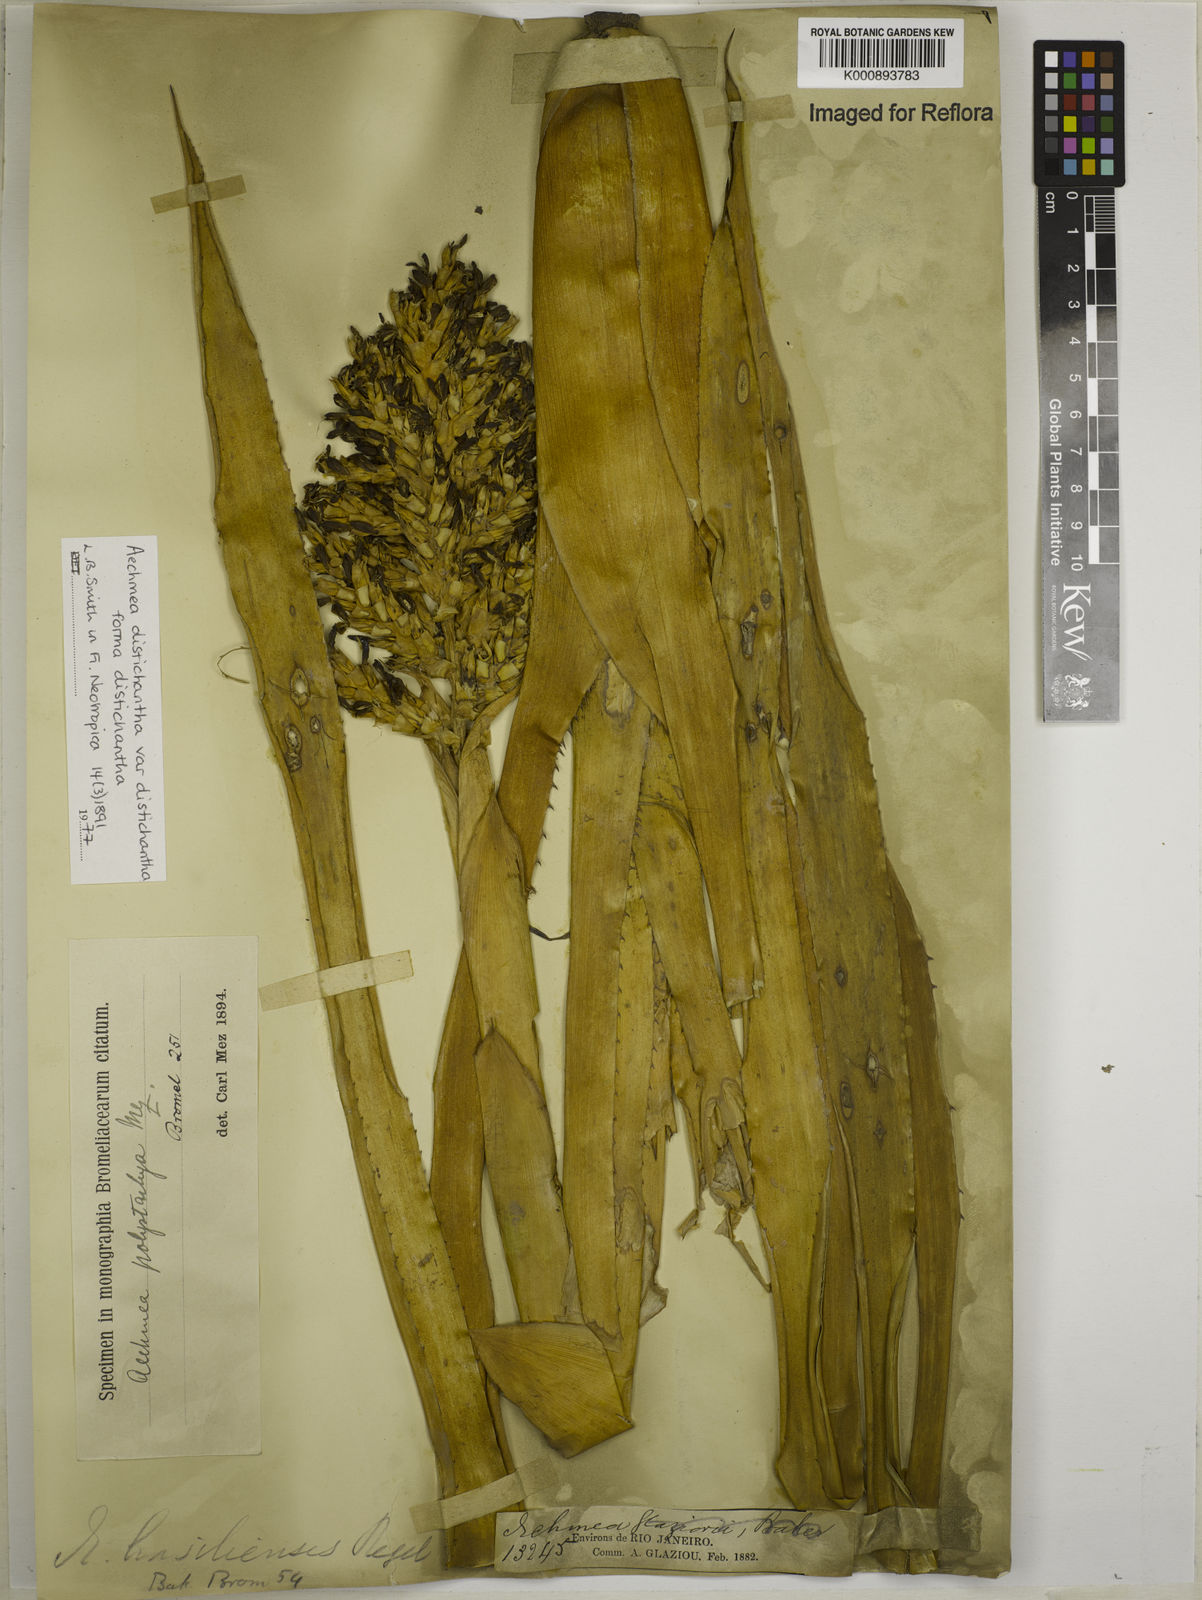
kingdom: Plantae
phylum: Tracheophyta
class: Liliopsida
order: Poales
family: Bromeliaceae
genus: Aechmea
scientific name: Aechmea distichantha
